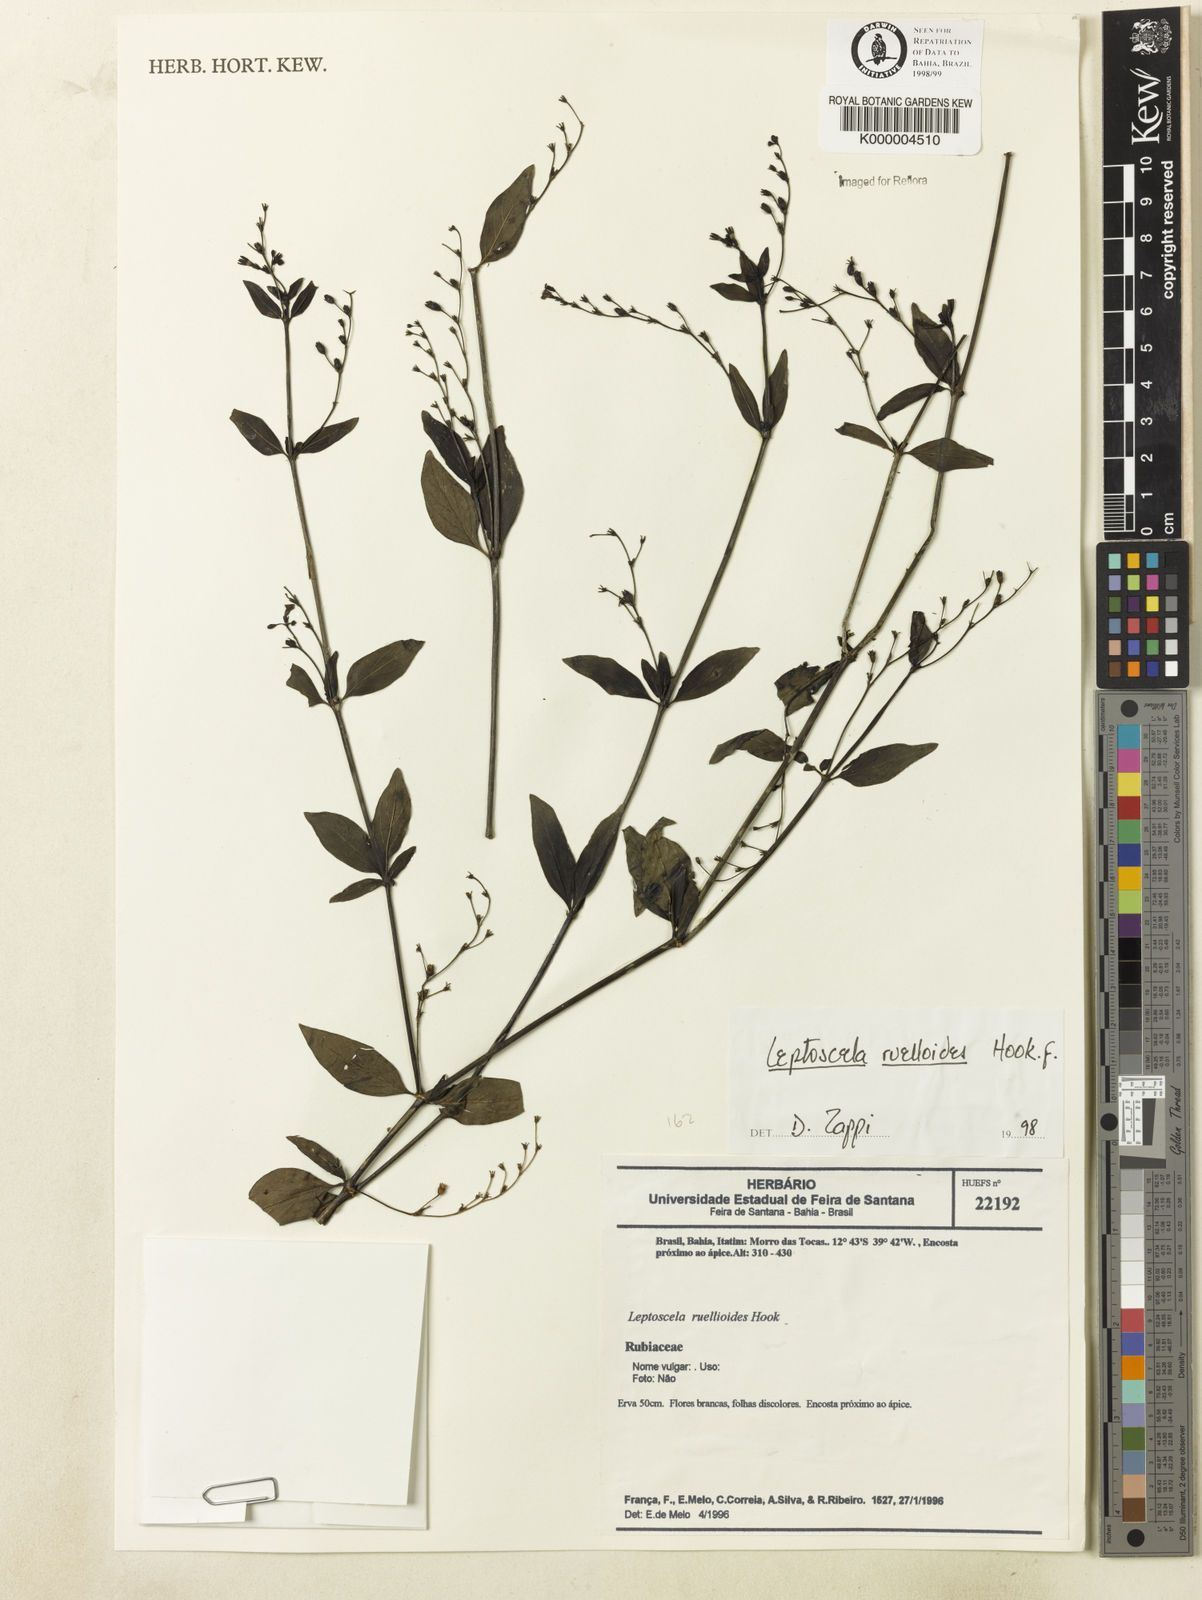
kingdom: Plantae
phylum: Tracheophyta
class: Magnoliopsida
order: Gentianales
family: Rubiaceae
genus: Leptoscela
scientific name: Leptoscela
